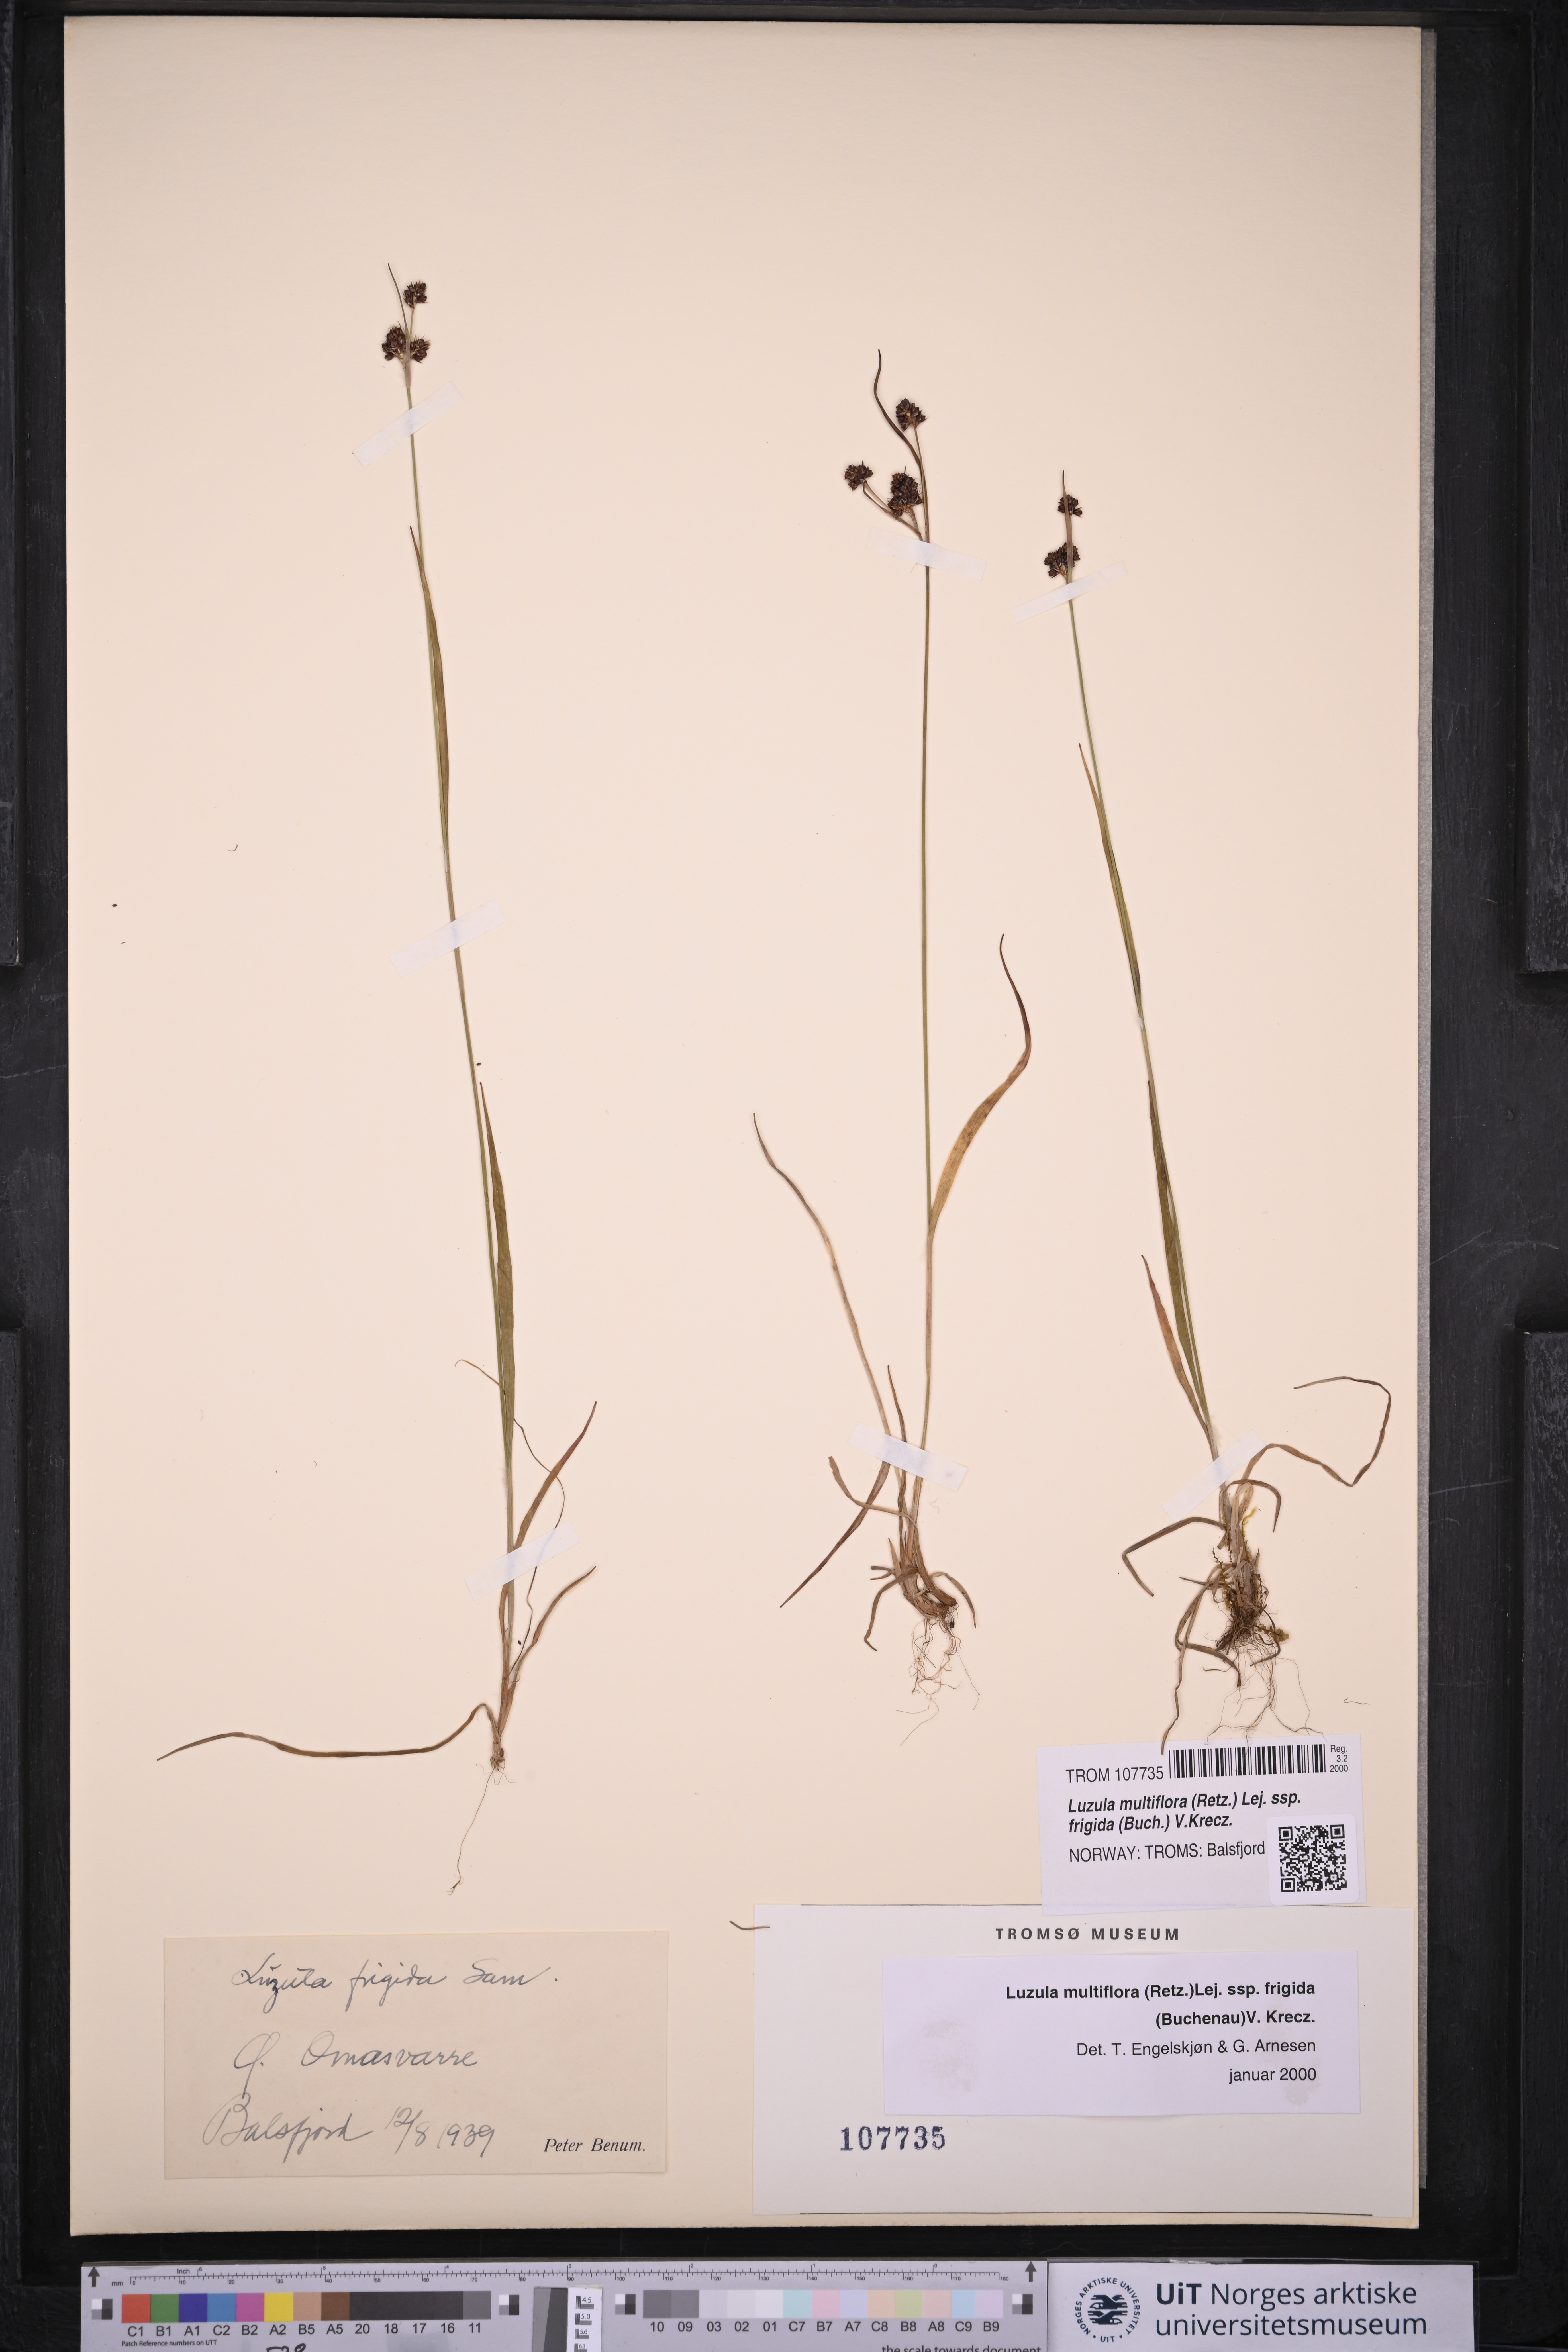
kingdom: Plantae
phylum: Tracheophyta
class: Liliopsida
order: Poales
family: Juncaceae
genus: Luzula
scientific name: Luzula multiflora
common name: Heath wood-rush
